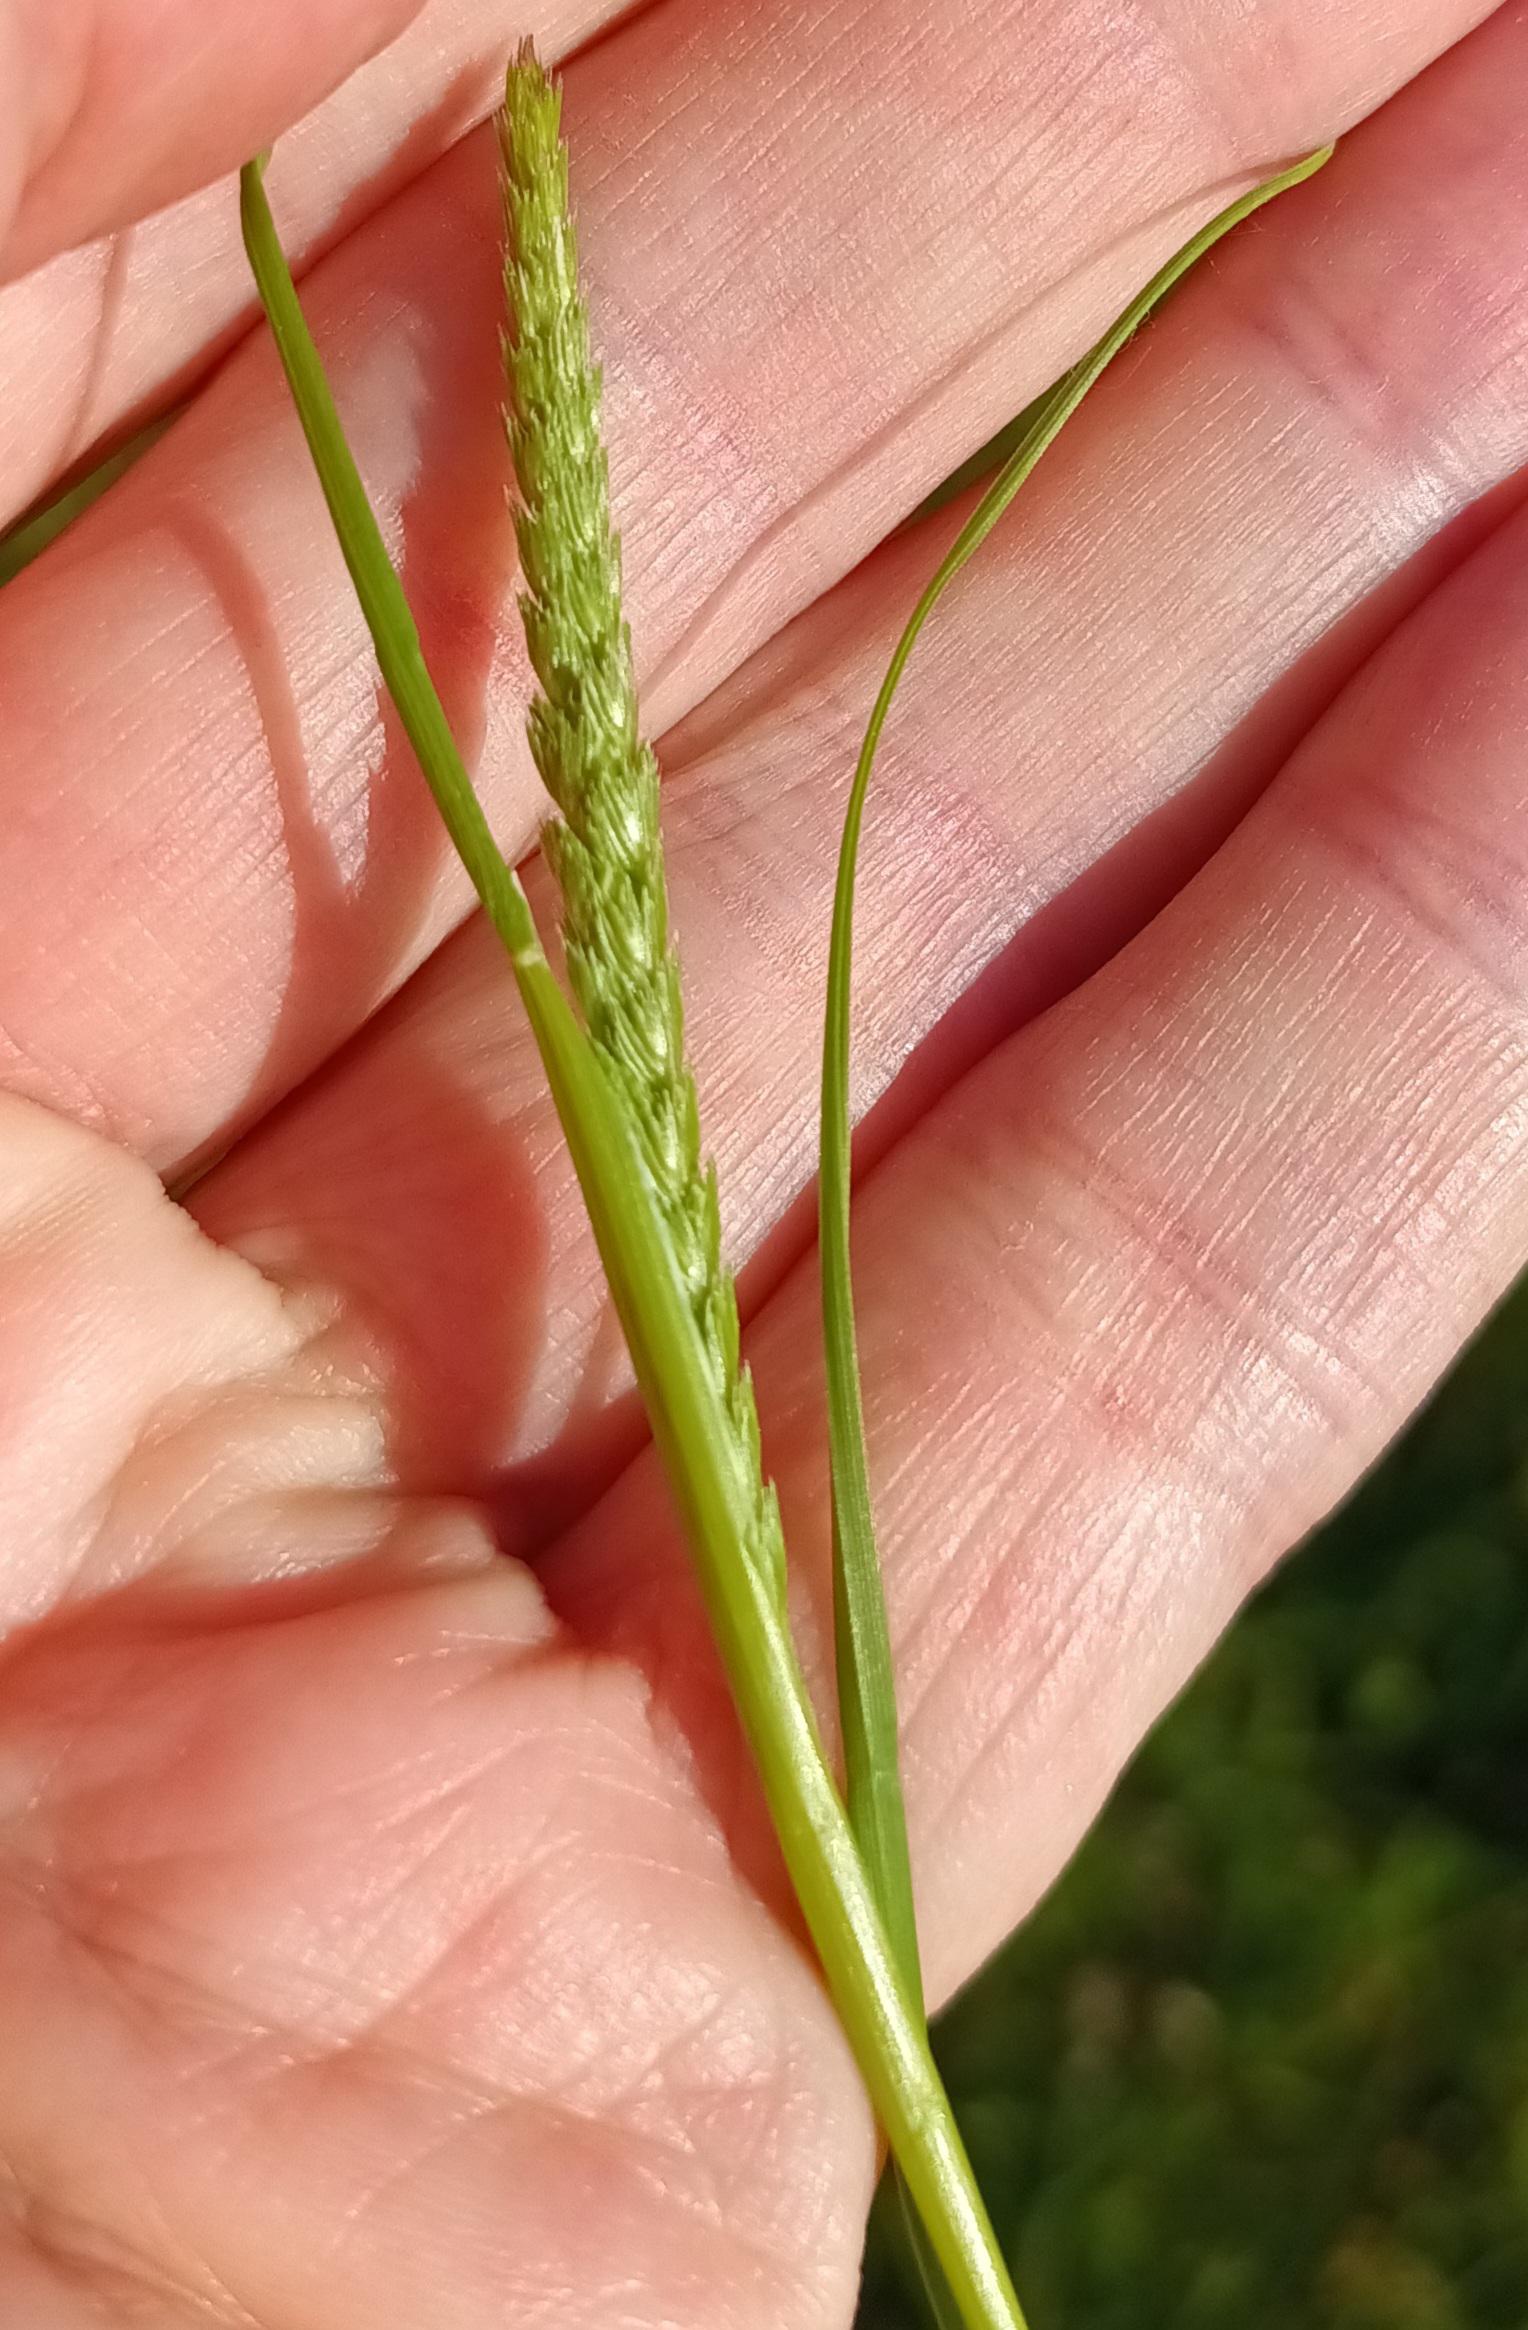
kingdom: Plantae
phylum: Tracheophyta
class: Liliopsida
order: Poales
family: Poaceae
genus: Cynosurus
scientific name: Cynosurus cristatus
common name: Kamgræs
